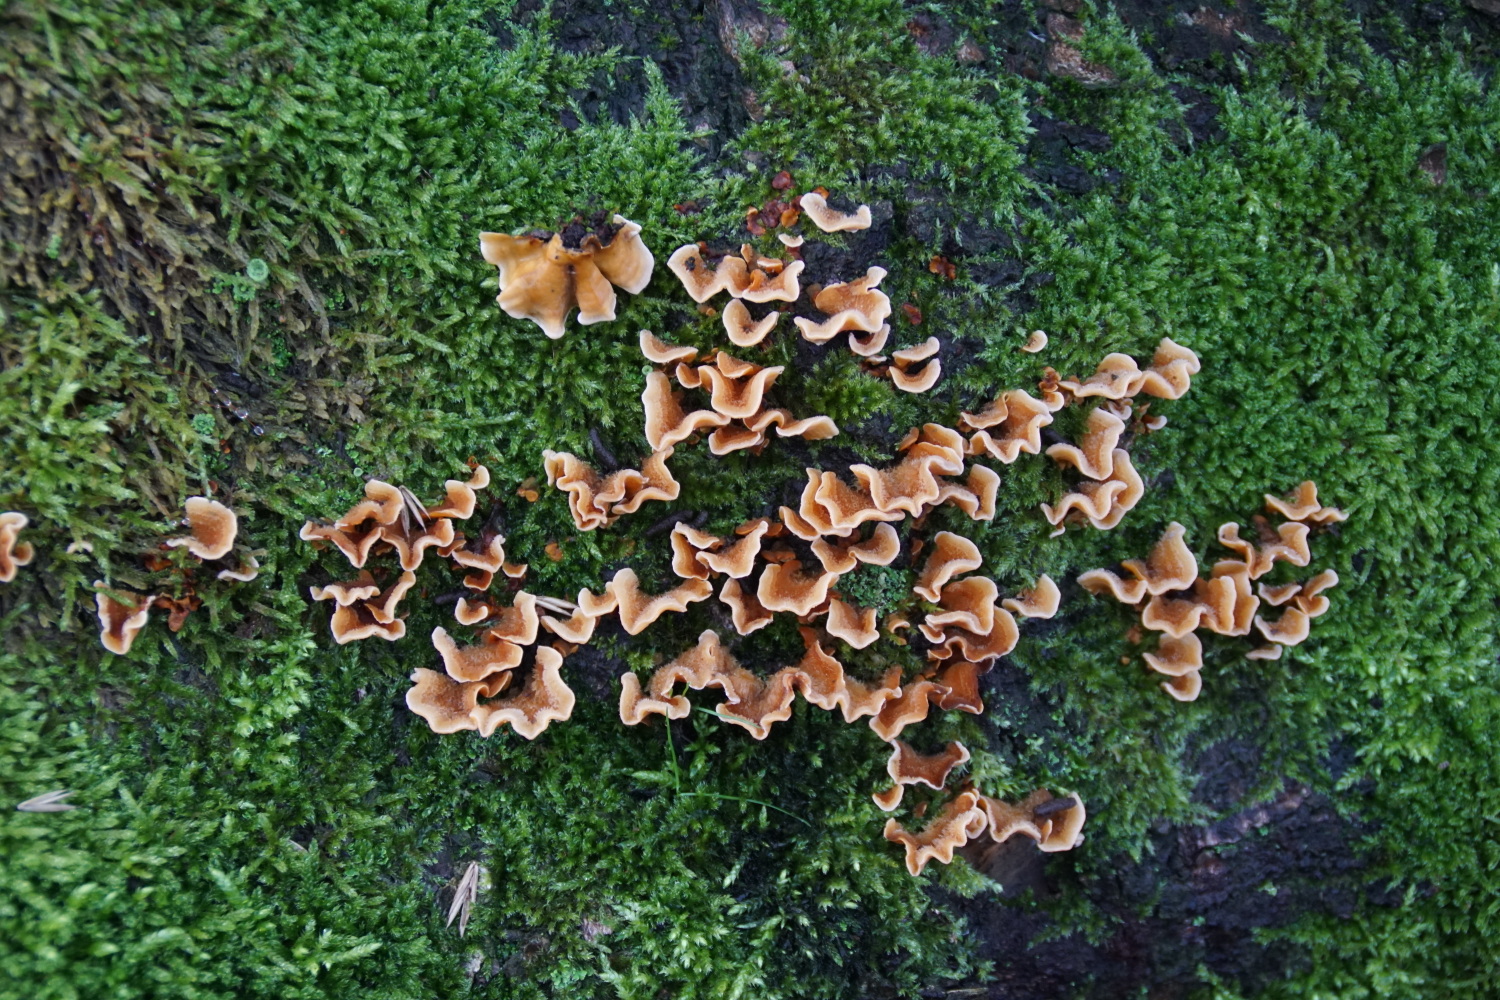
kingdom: Fungi
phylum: Basidiomycota
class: Agaricomycetes
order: Russulales
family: Stereaceae
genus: Stereum
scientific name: Stereum hirsutum
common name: håret lædersvamp
